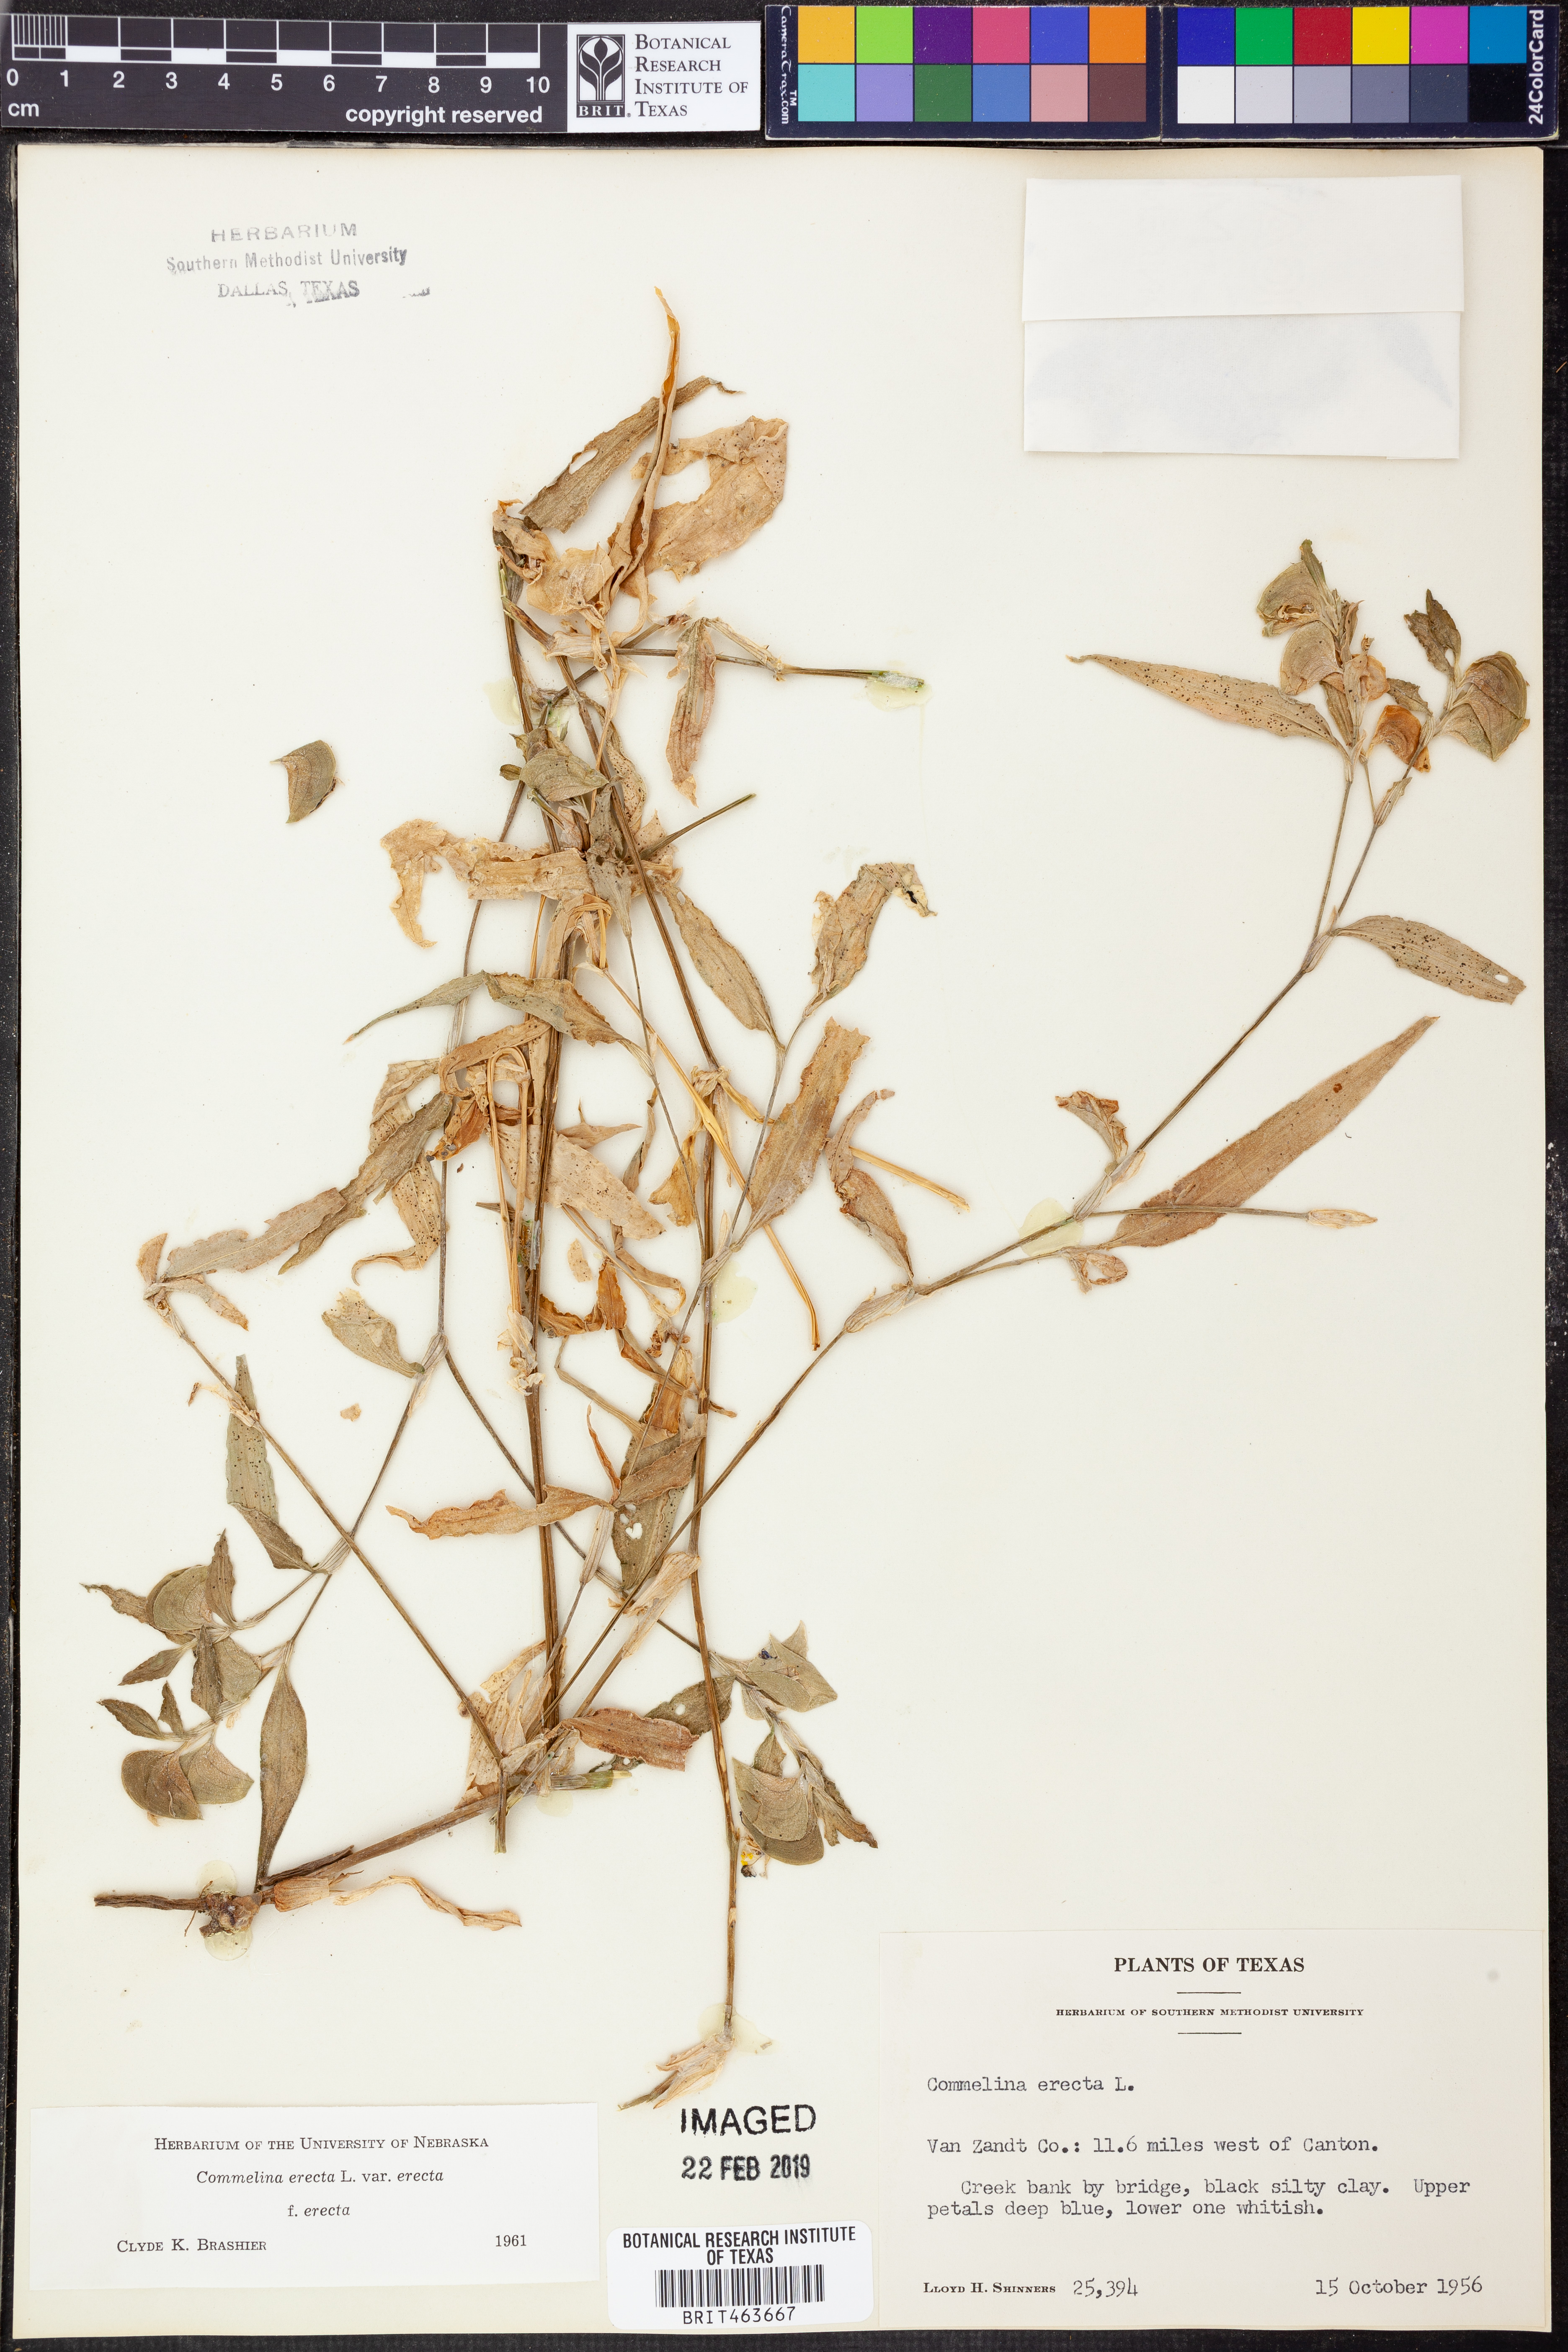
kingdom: Plantae
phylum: Tracheophyta
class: Liliopsida
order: Commelinales
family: Commelinaceae
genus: Commelina
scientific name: Commelina erecta
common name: Blousel blommetjie
